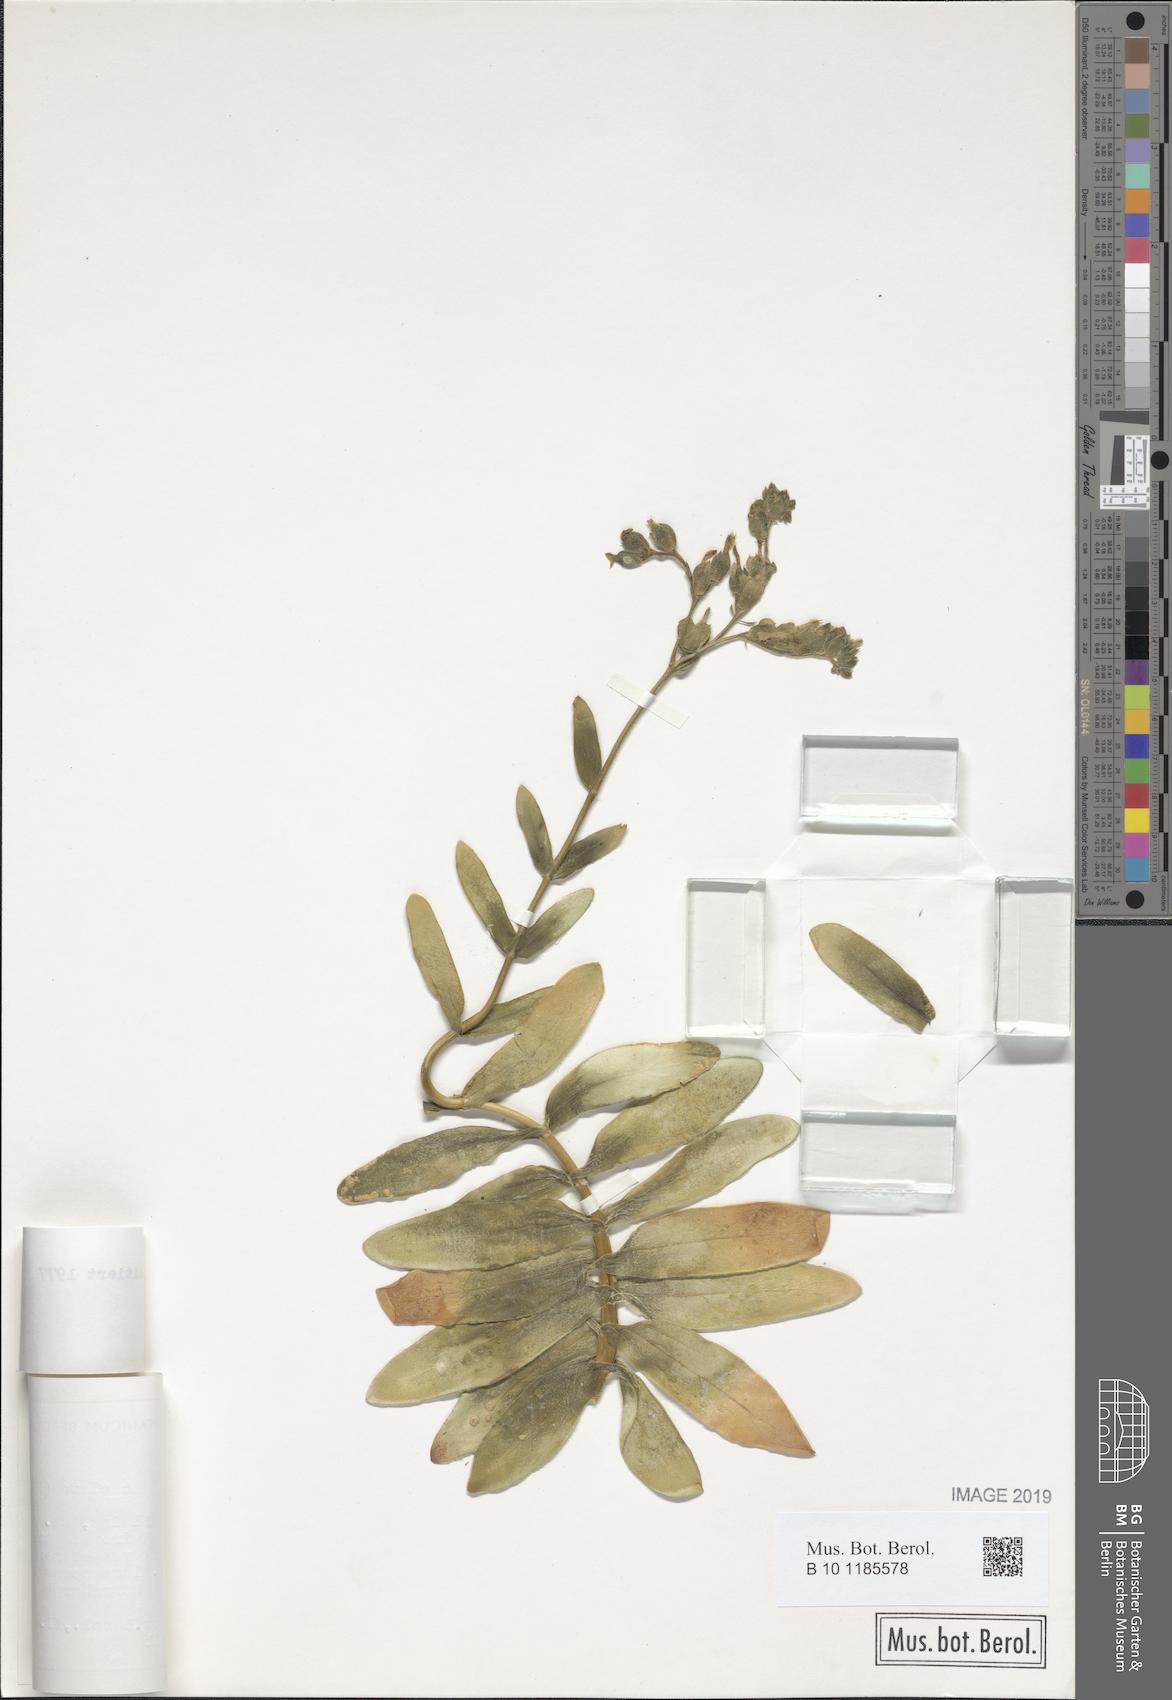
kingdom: Plantae
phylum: Tracheophyta
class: Magnoliopsida
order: Saxifragales
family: Crassulaceae
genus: Kalanchoe
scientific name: Kalanchoe lanceolata
